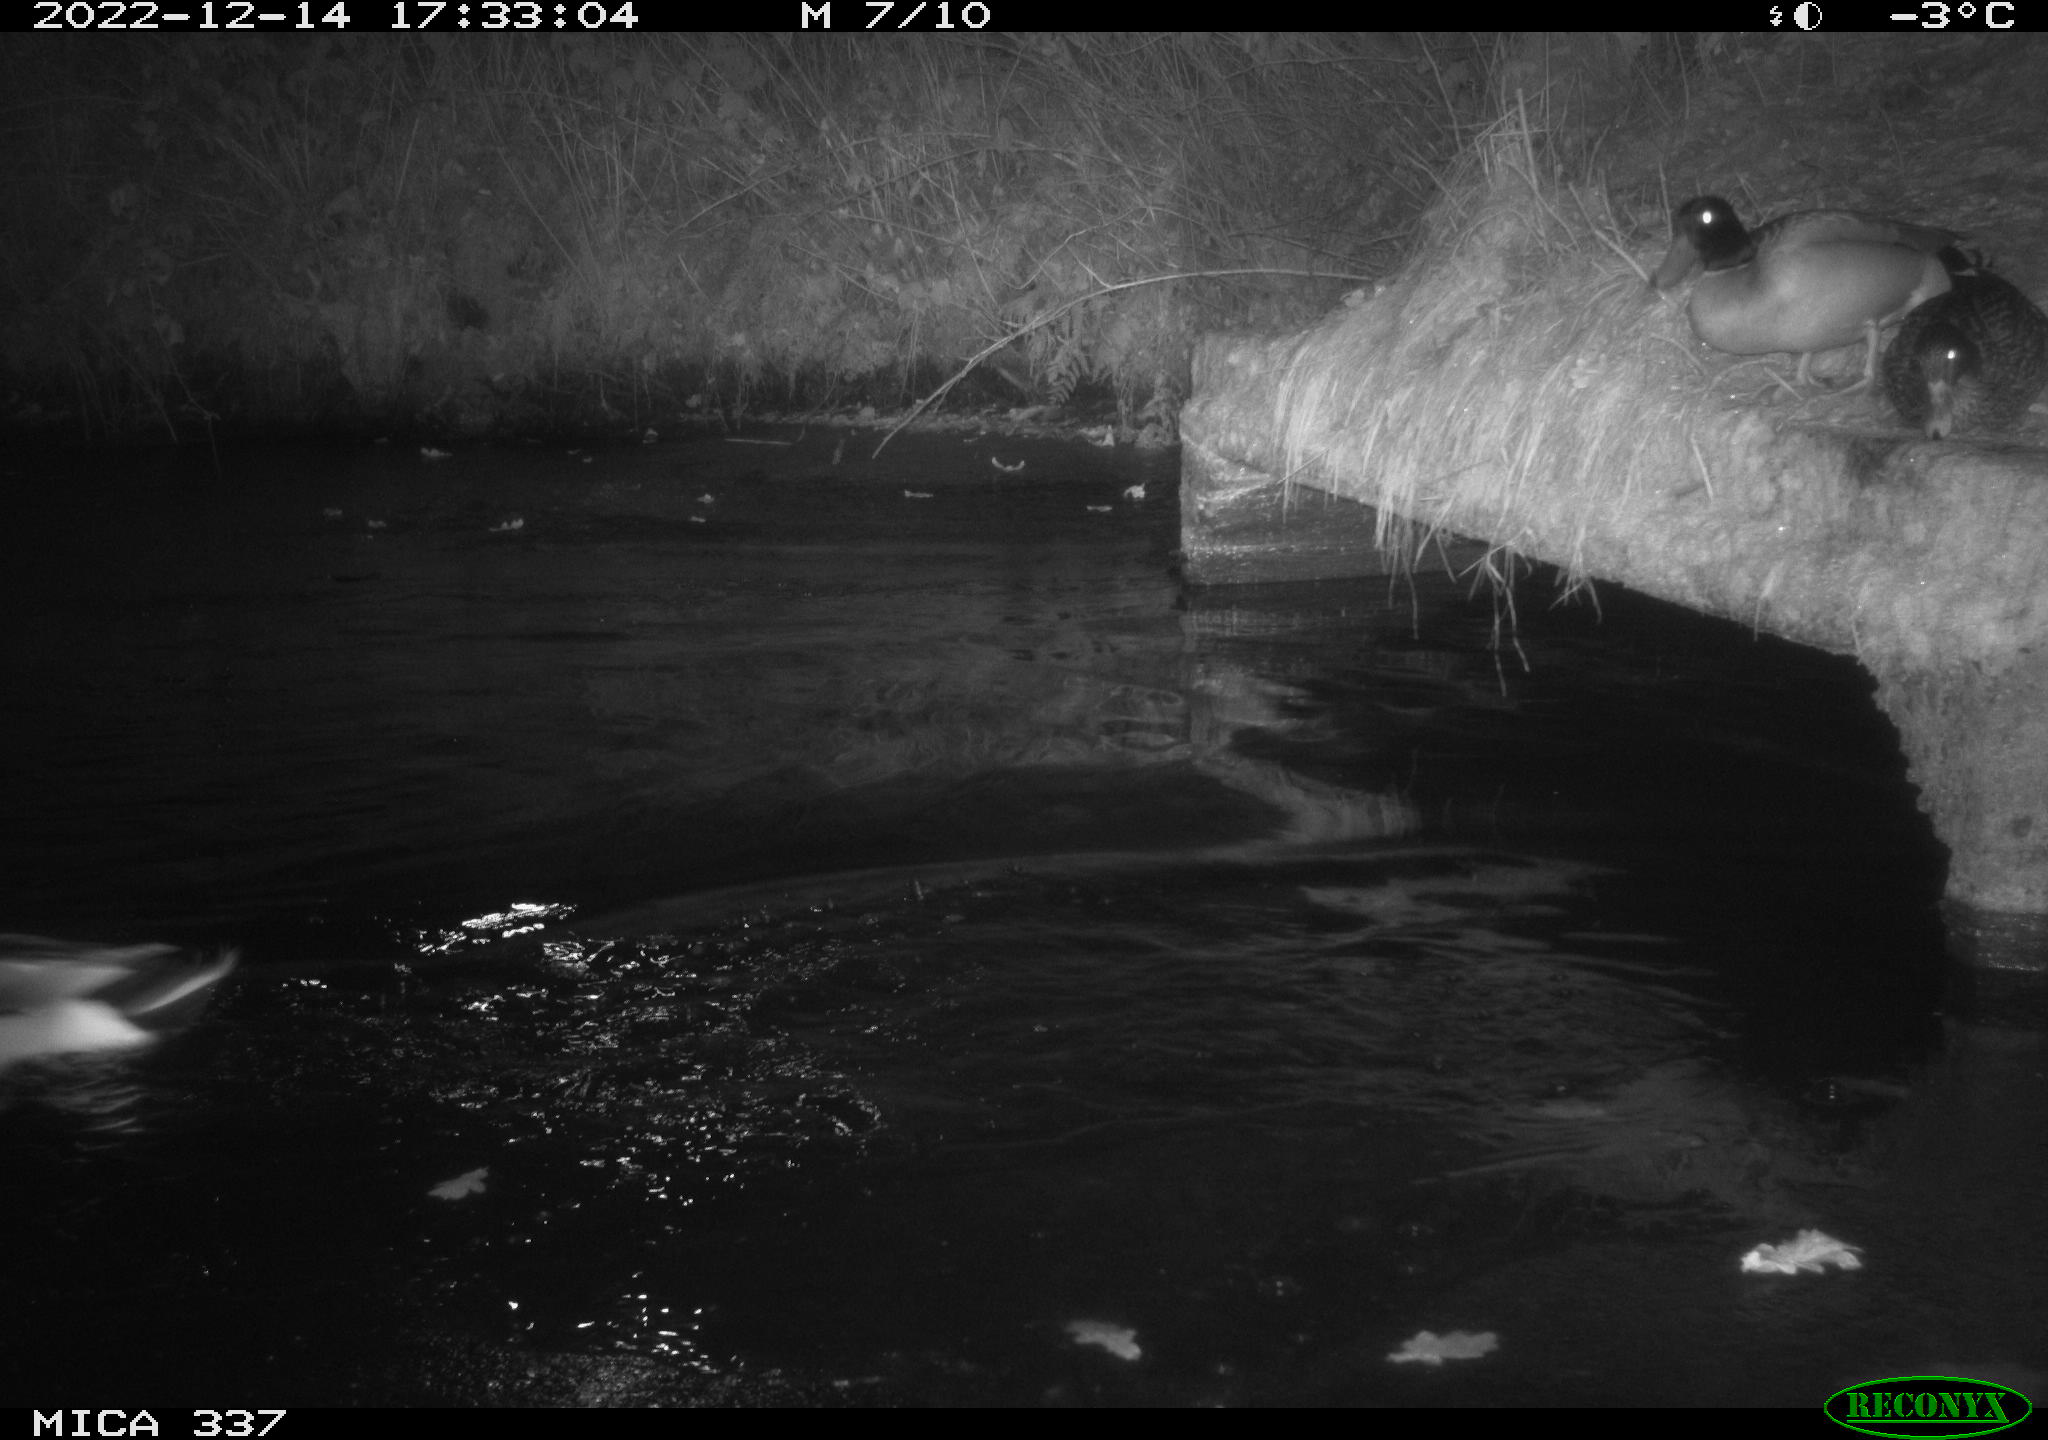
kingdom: Animalia
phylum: Chordata
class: Aves
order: Anseriformes
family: Anatidae
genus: Anas
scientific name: Anas platyrhynchos
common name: Mallard
